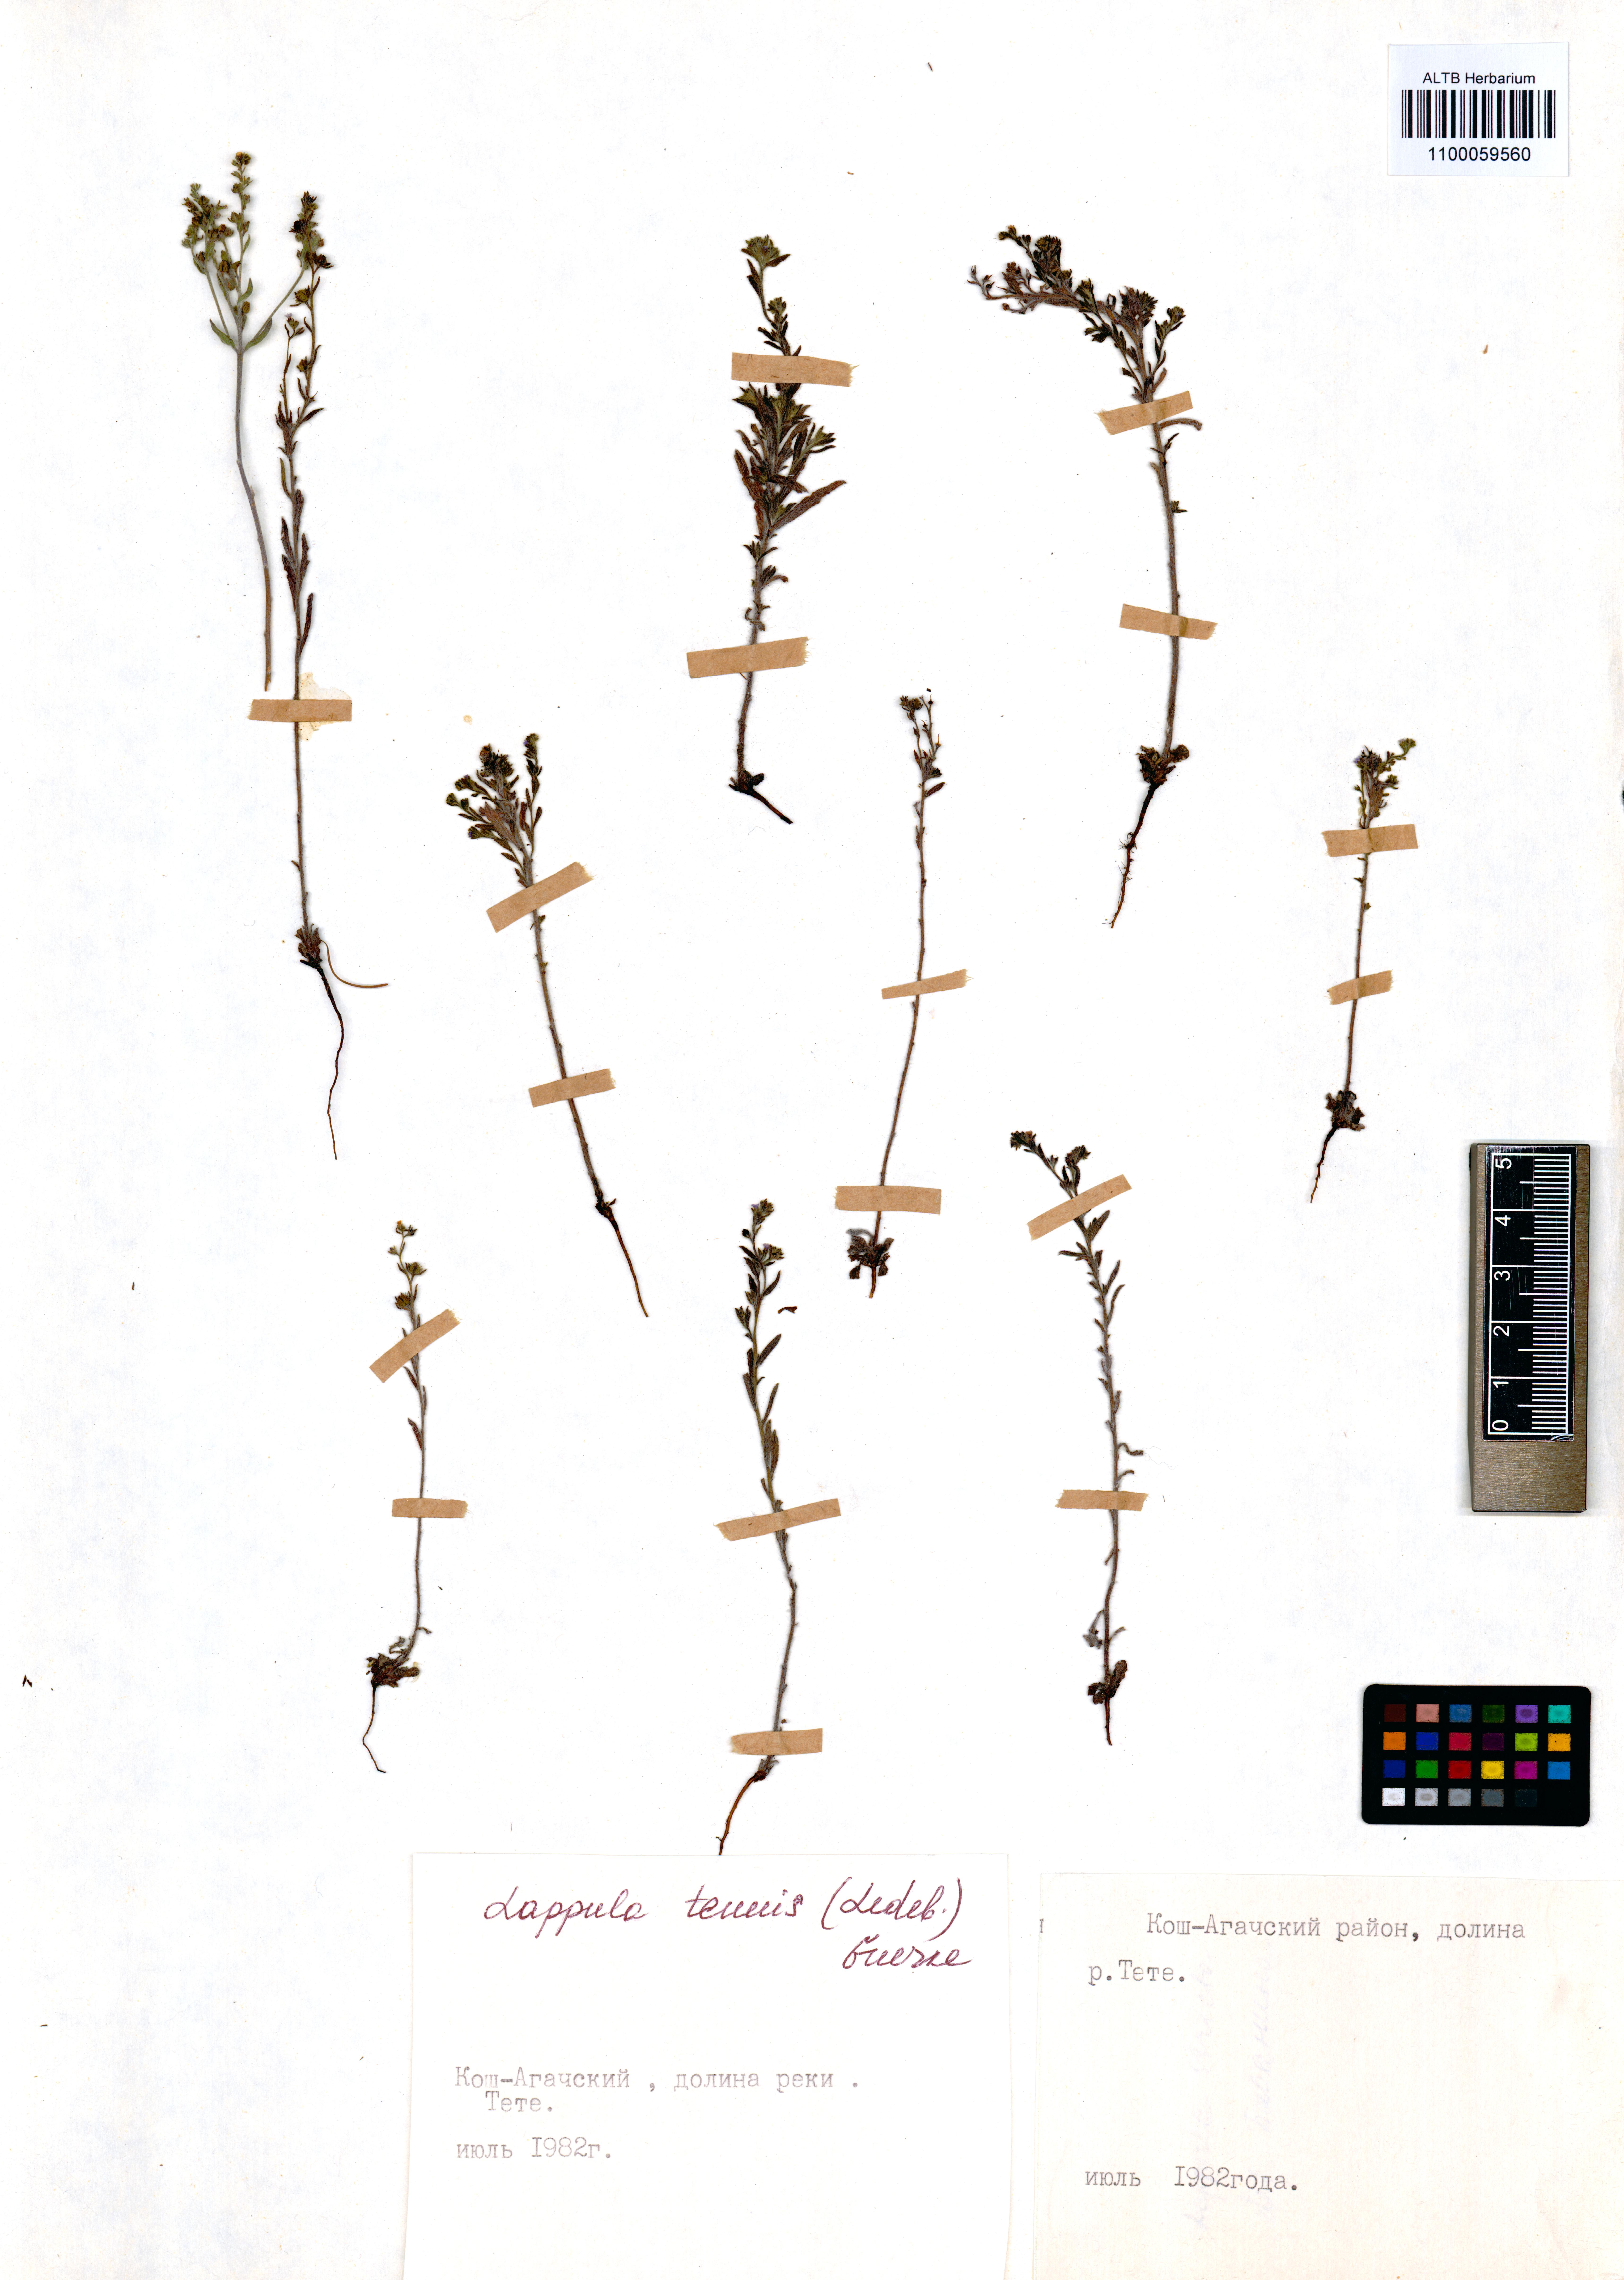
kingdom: Plantae
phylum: Tracheophyta
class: Magnoliopsida
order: Boraginales
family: Boraginaceae
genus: Lappula
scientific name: Lappula tenuis
